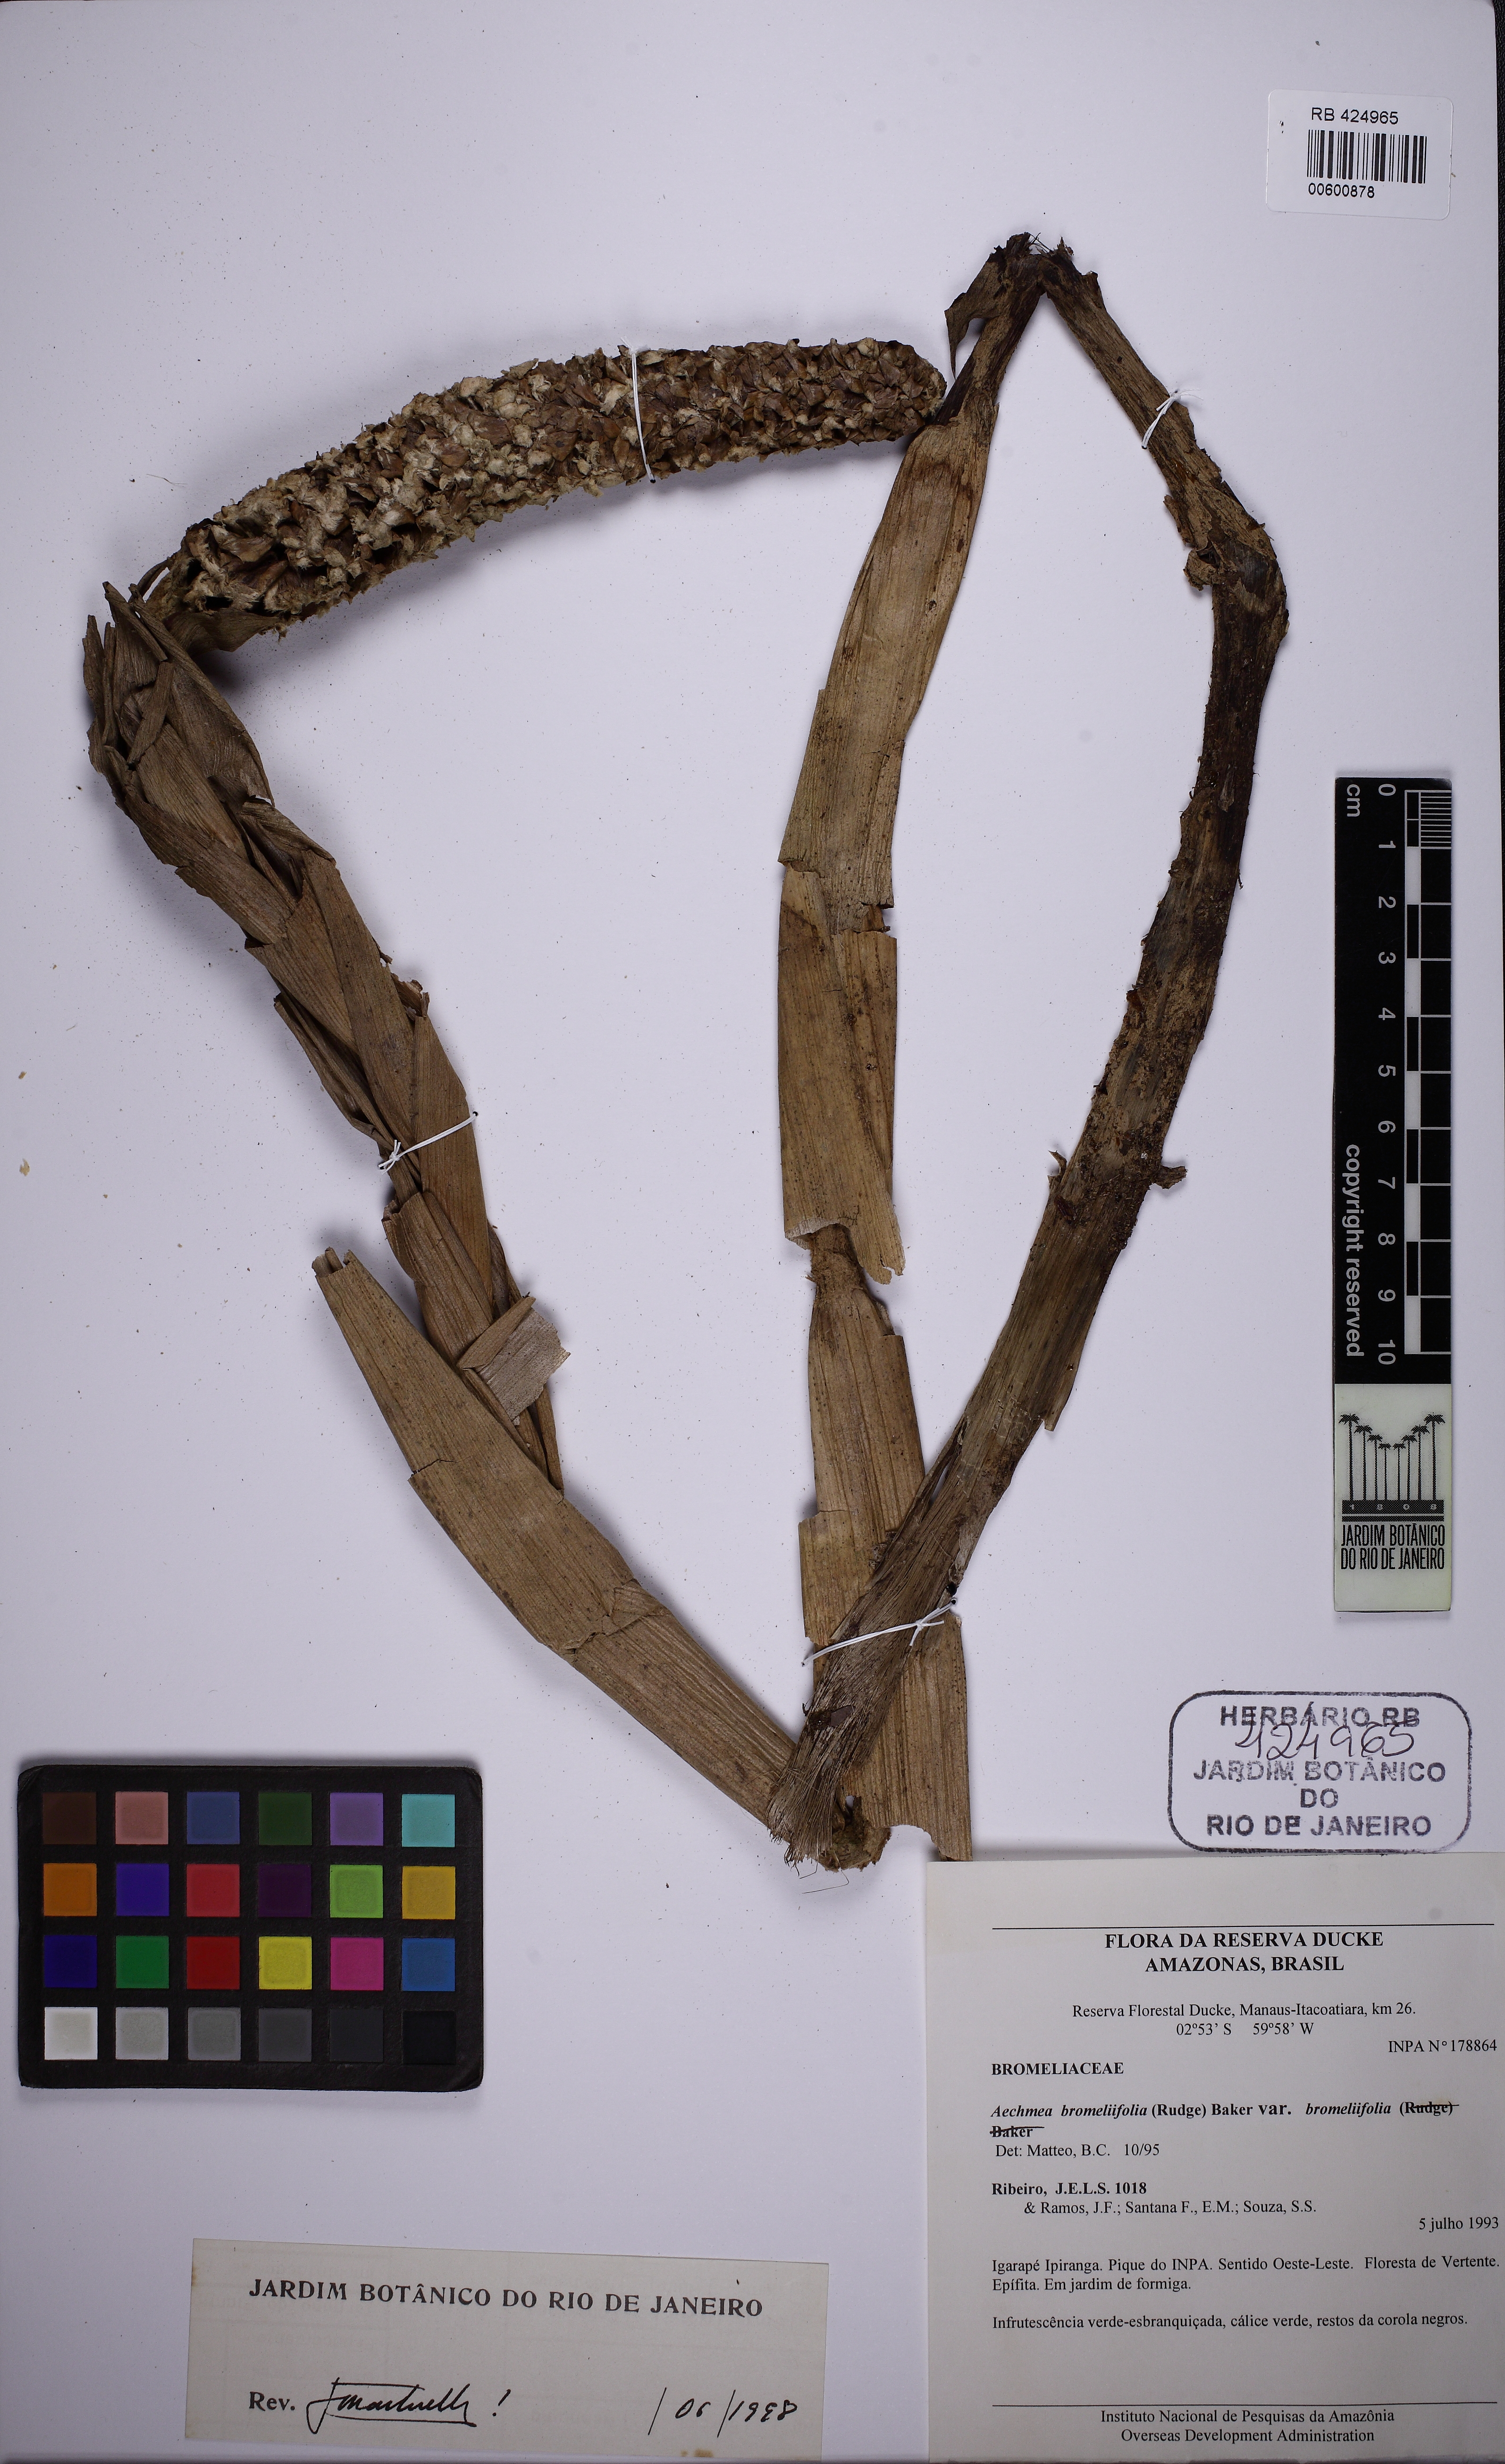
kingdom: Plantae
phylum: Tracheophyta
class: Liliopsida
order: Poales
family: Bromeliaceae
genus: Aechmea
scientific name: Aechmea bromeliifolia
